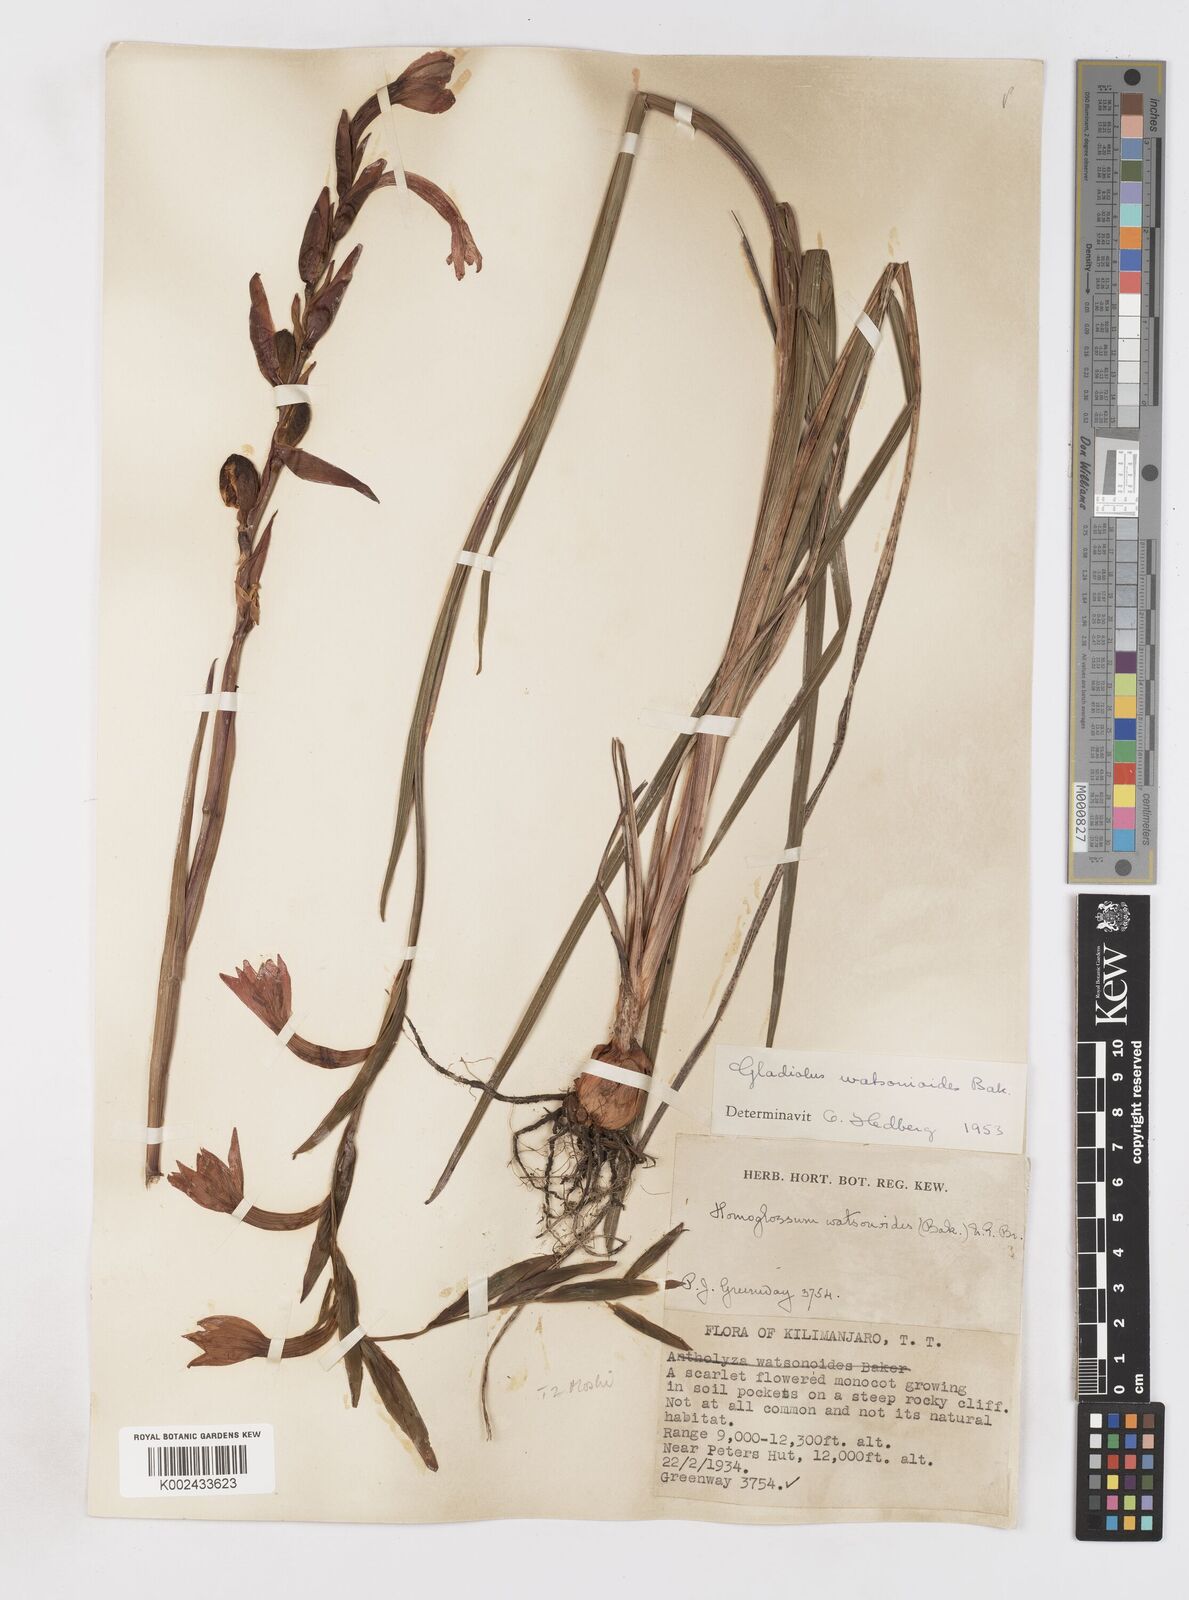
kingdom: Plantae
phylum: Tracheophyta
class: Liliopsida
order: Asparagales
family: Iridaceae
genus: Gladiolus
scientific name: Gladiolus watsonioides
